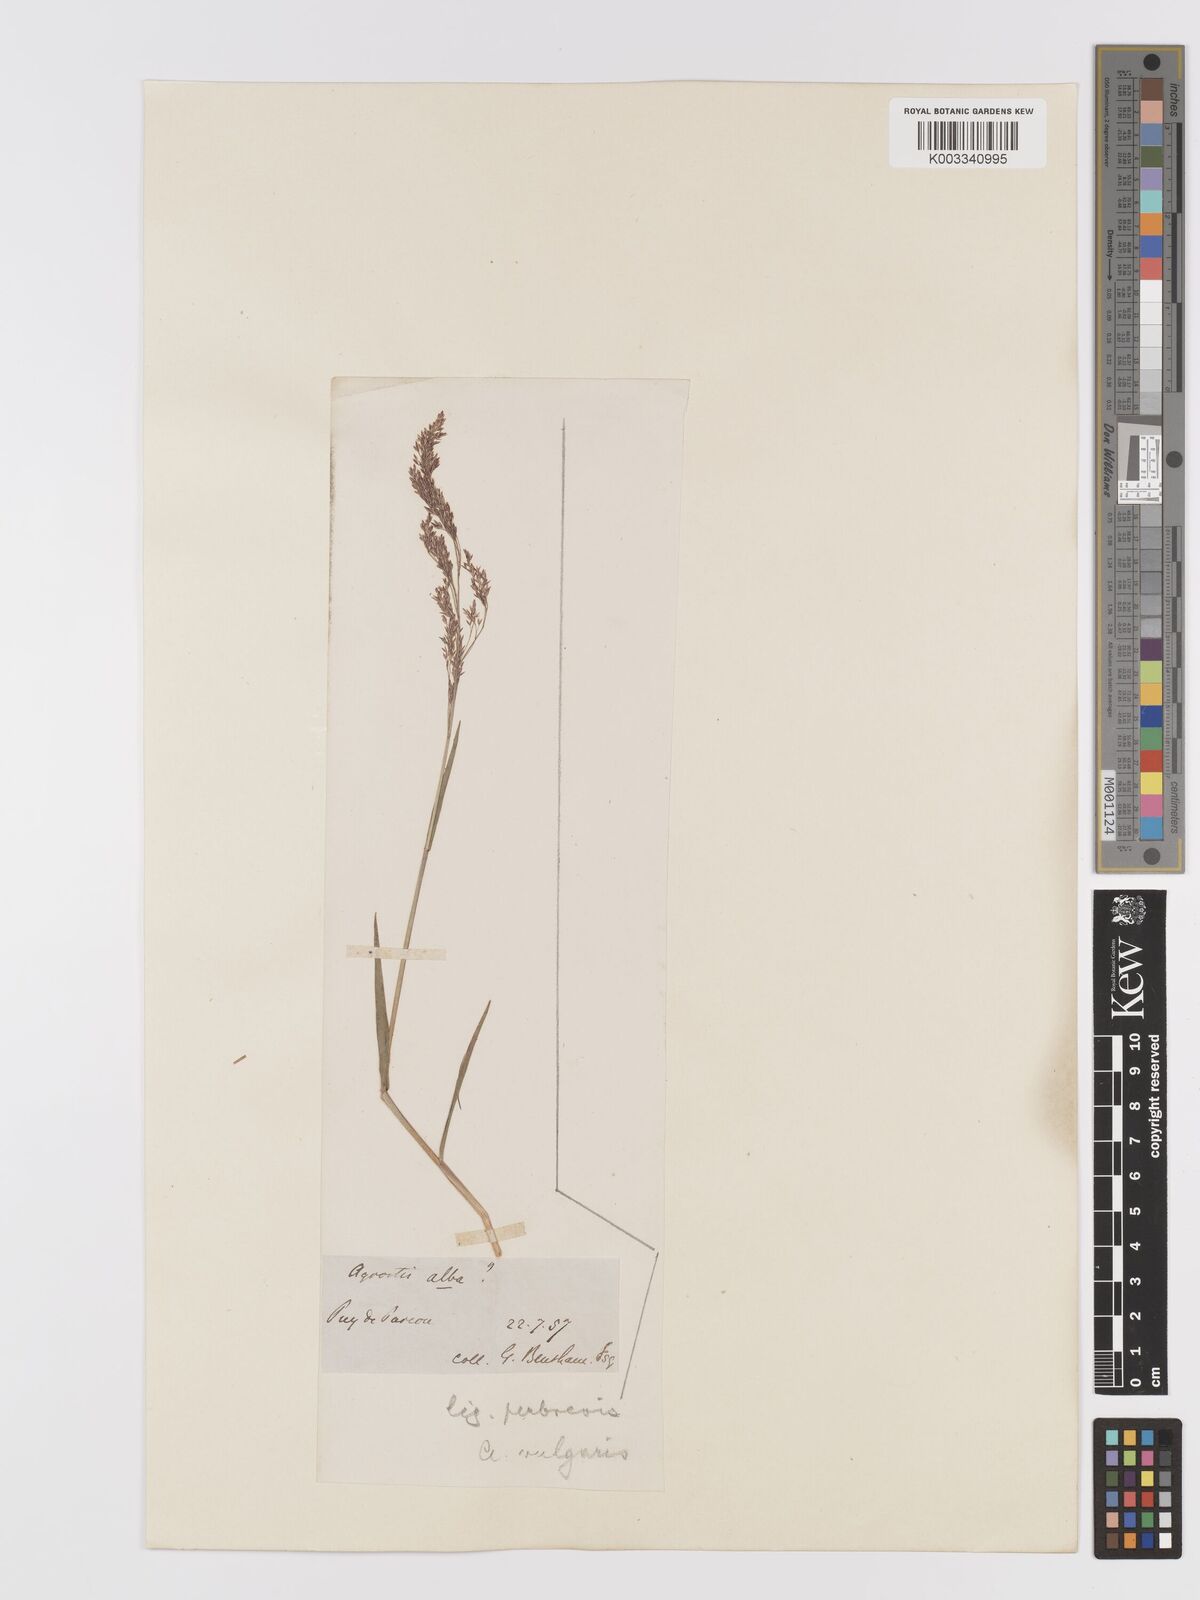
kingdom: Plantae
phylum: Tracheophyta
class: Liliopsida
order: Poales
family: Poaceae
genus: Agrostis
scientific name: Agrostis capillaris
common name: Colonial bentgrass
